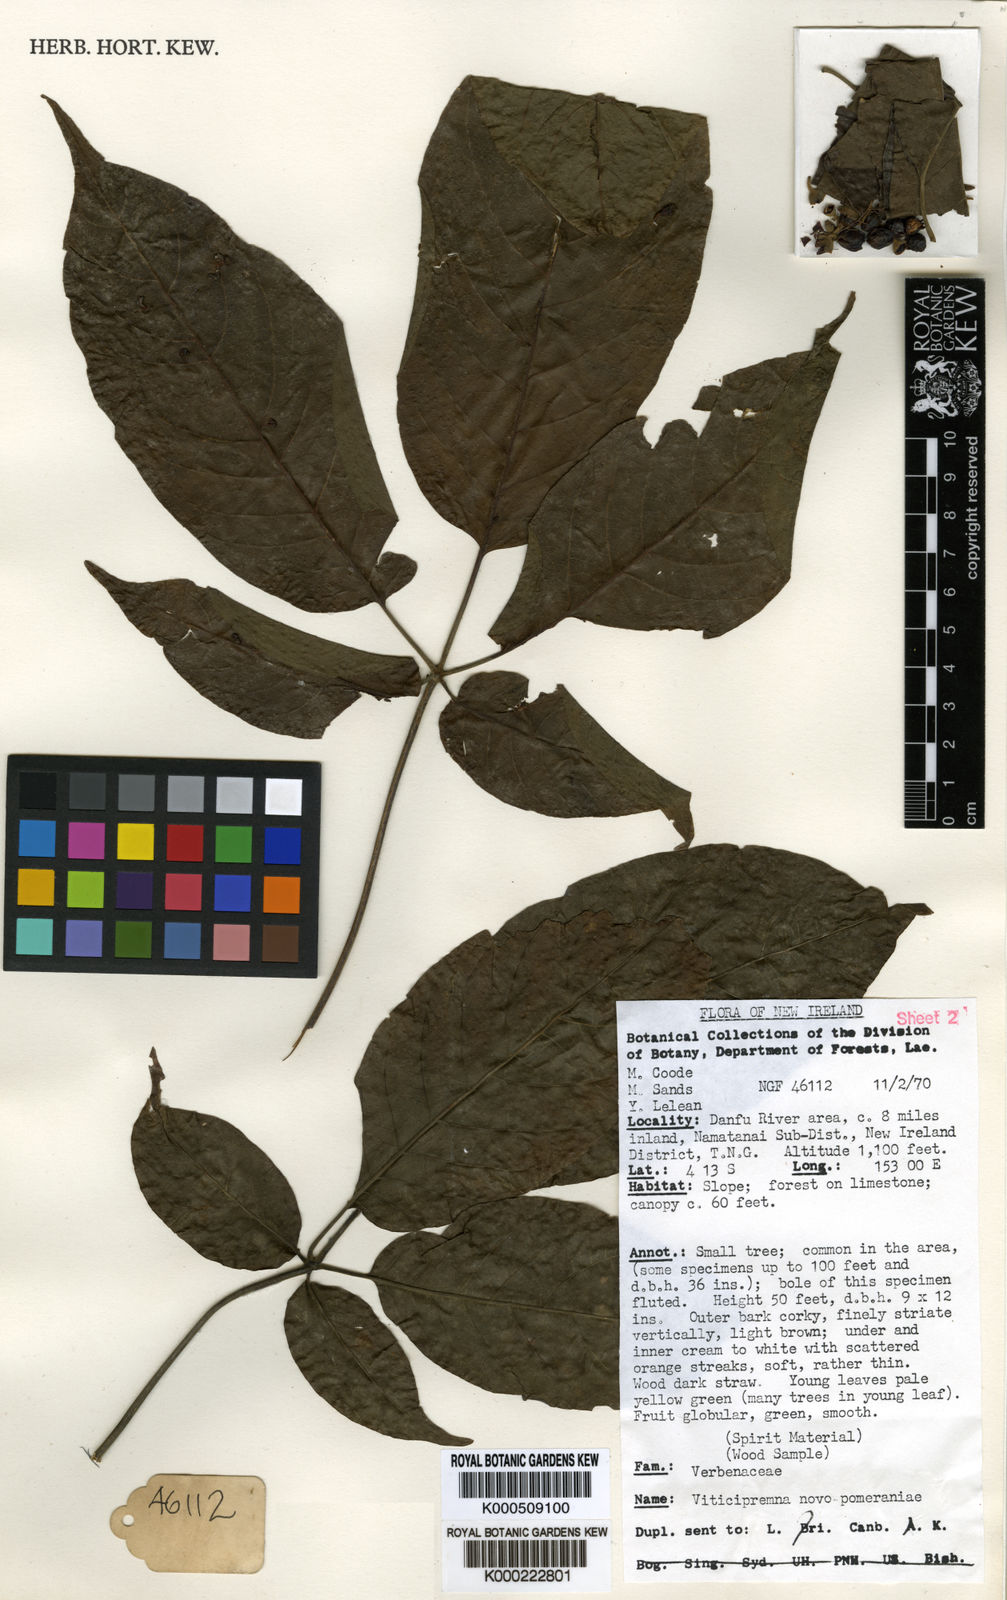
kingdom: Plantae
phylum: Tracheophyta
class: Magnoliopsida
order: Lamiales
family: Lamiaceae
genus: Vitex
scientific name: Vitex novae-pommeraniae
